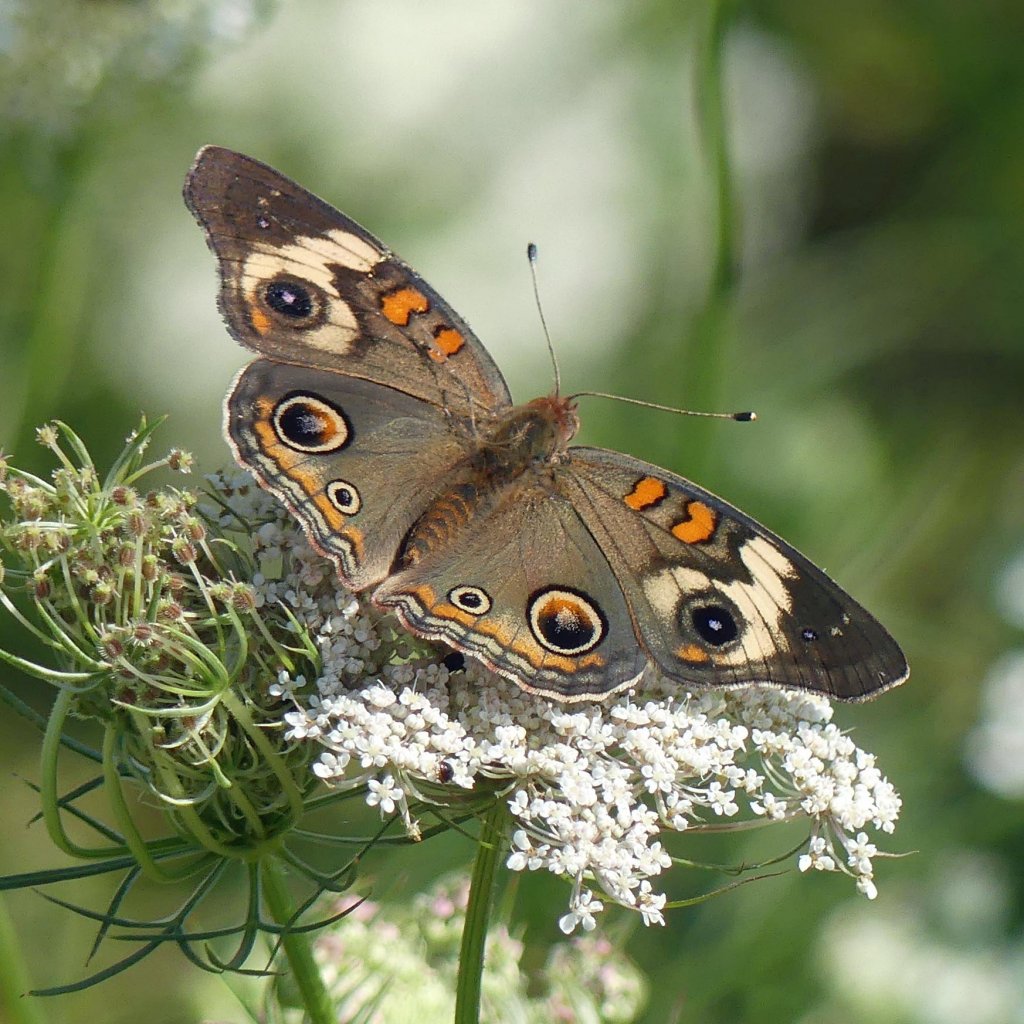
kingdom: Animalia
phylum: Arthropoda
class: Insecta
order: Lepidoptera
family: Nymphalidae
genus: Junonia
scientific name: Junonia coenia
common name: Common Buckeye
